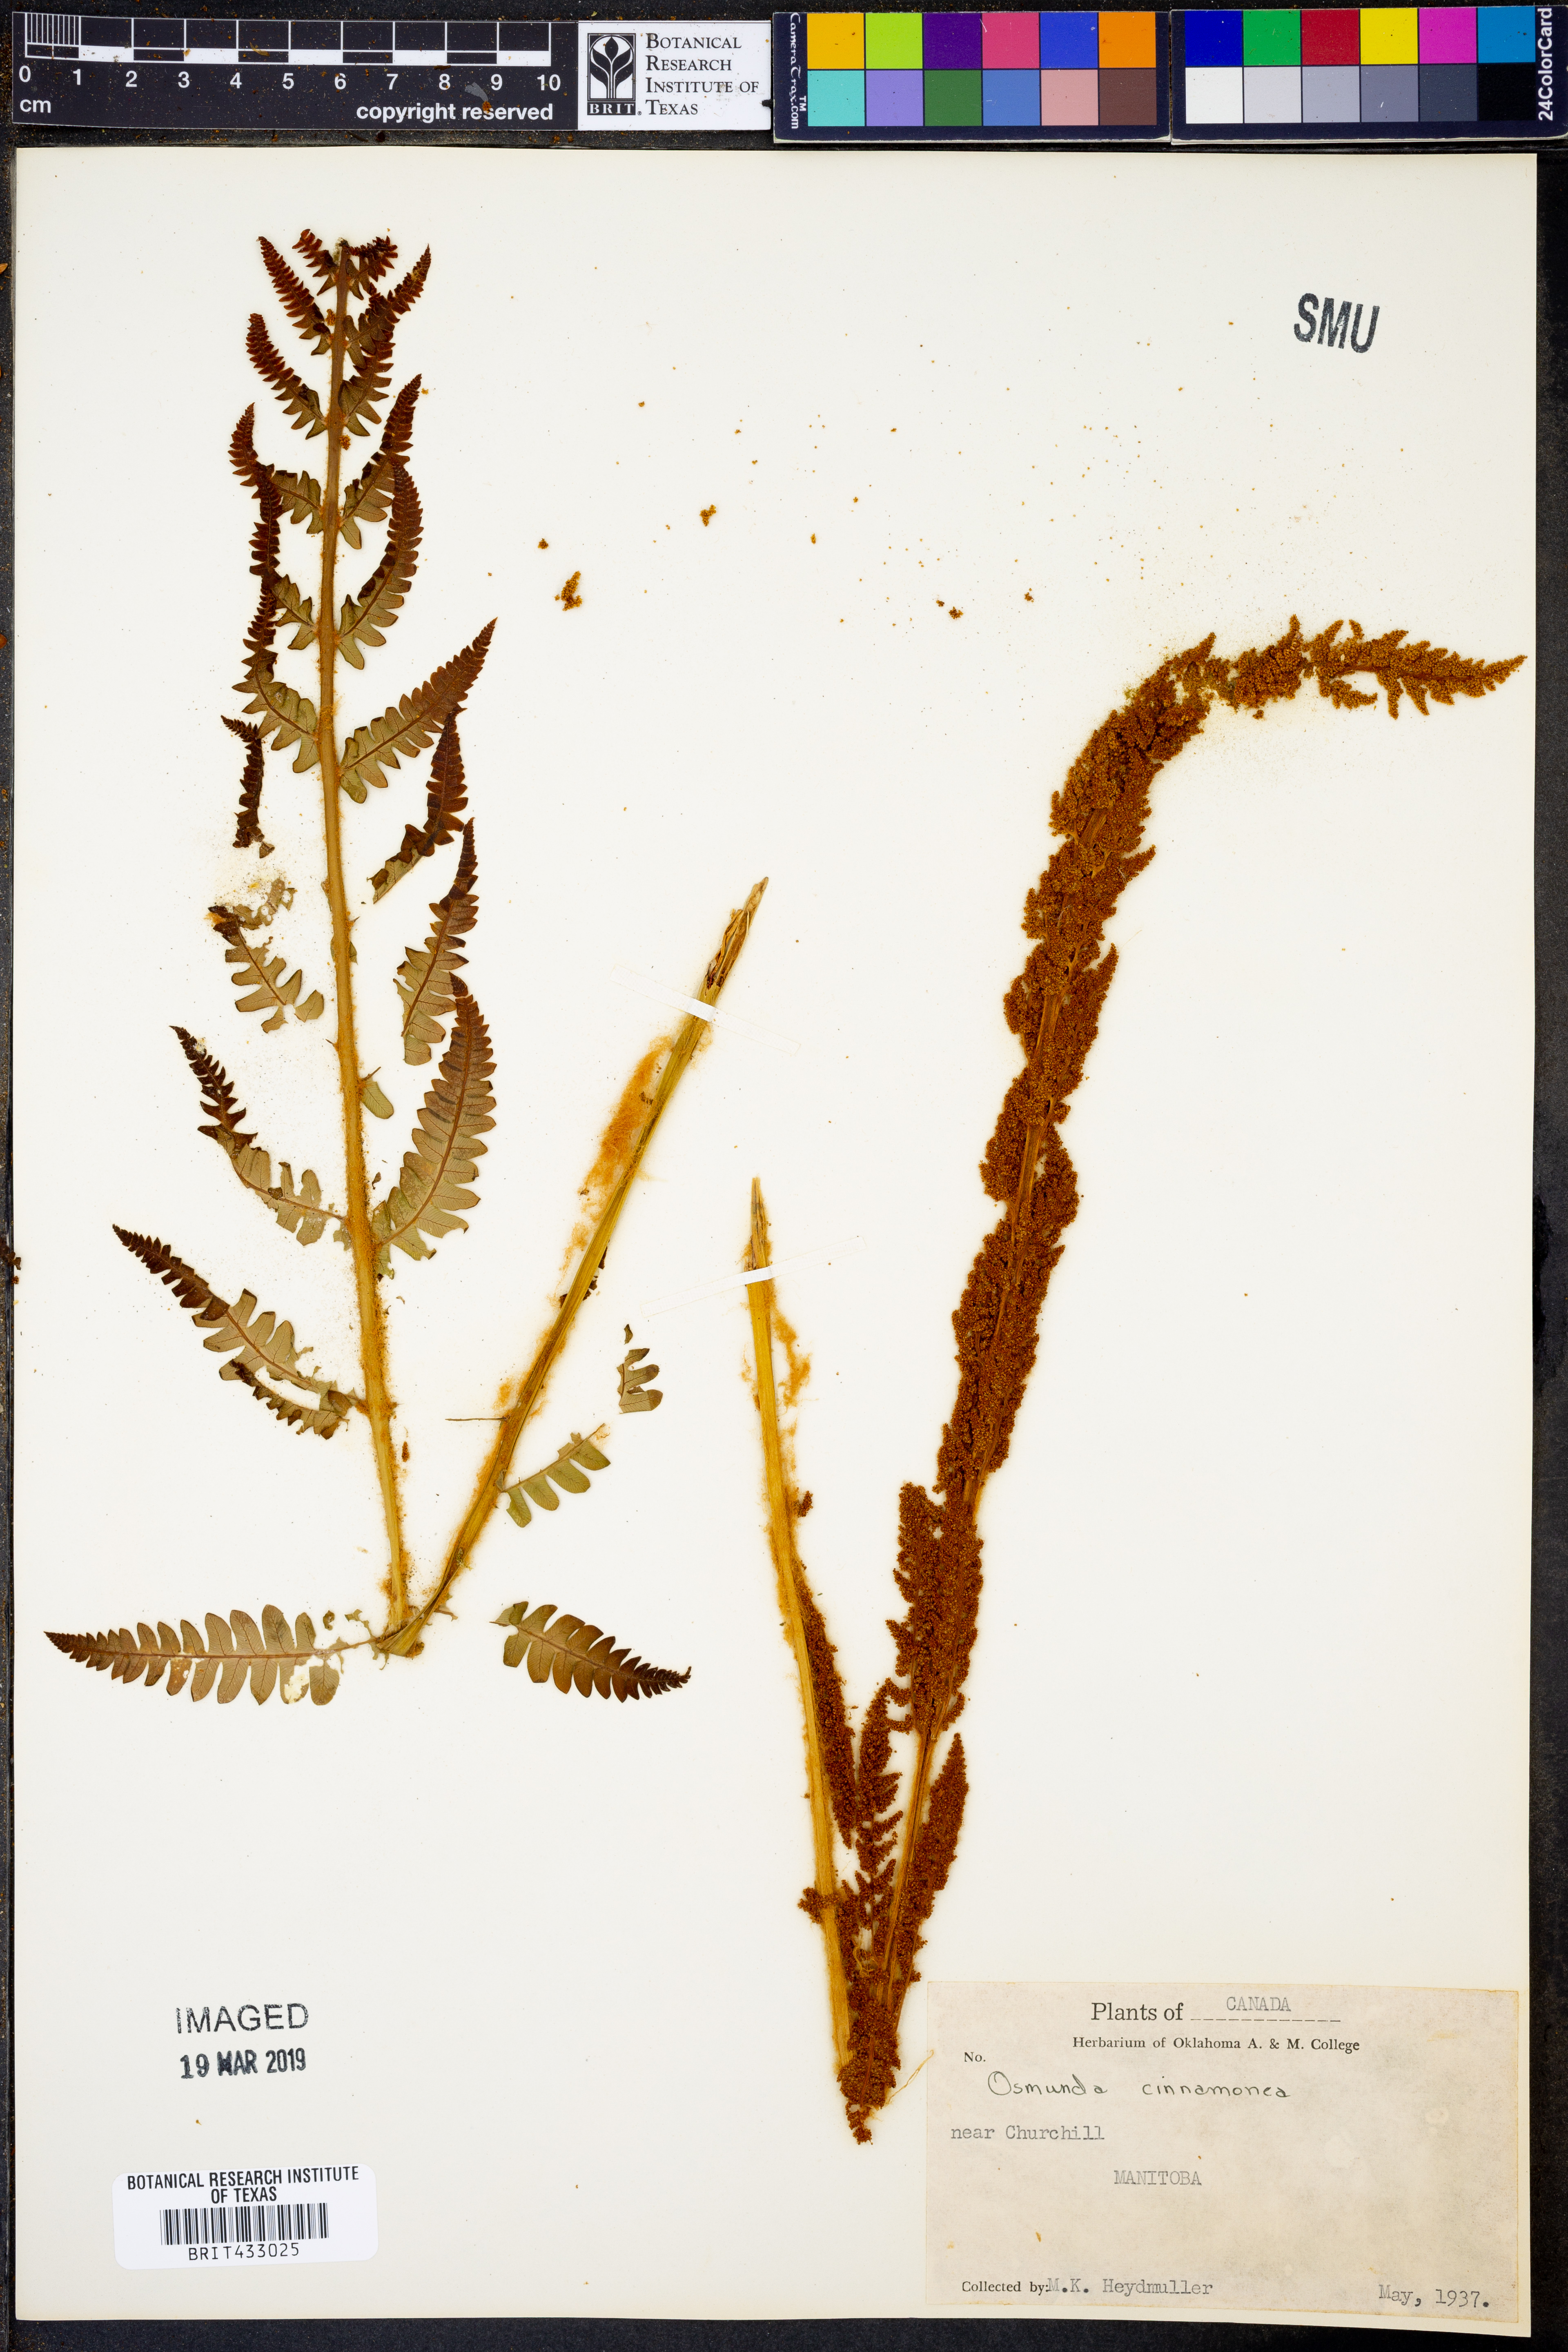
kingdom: Plantae
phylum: Tracheophyta
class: Polypodiopsida
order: Osmundales
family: Osmundaceae
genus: Osmundastrum
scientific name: Osmundastrum cinnamomeum
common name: Cinnamon fern
